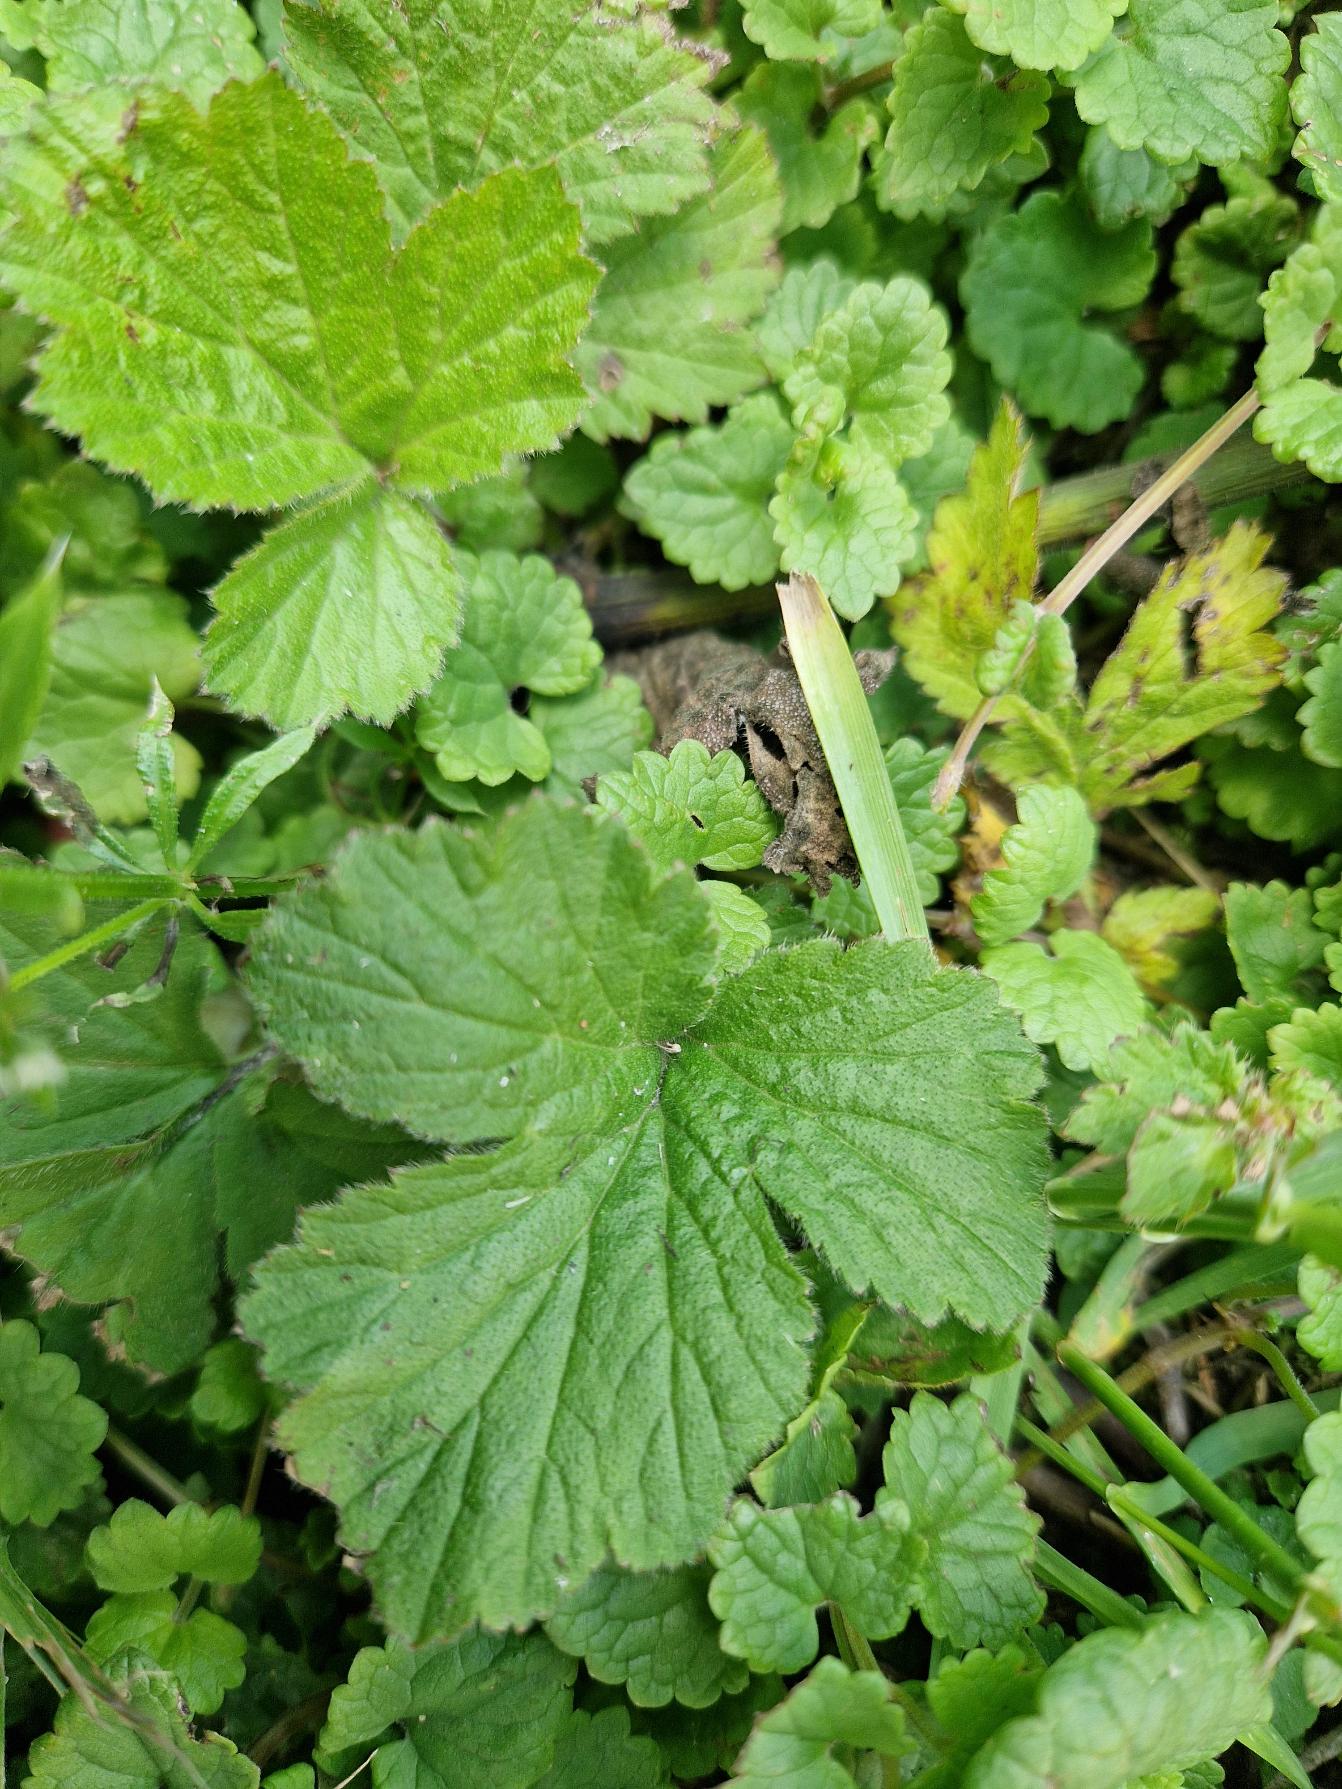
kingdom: Plantae
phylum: Tracheophyta
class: Magnoliopsida
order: Lamiales
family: Lamiaceae
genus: Glechoma
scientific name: Glechoma hederacea
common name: Korsknap
